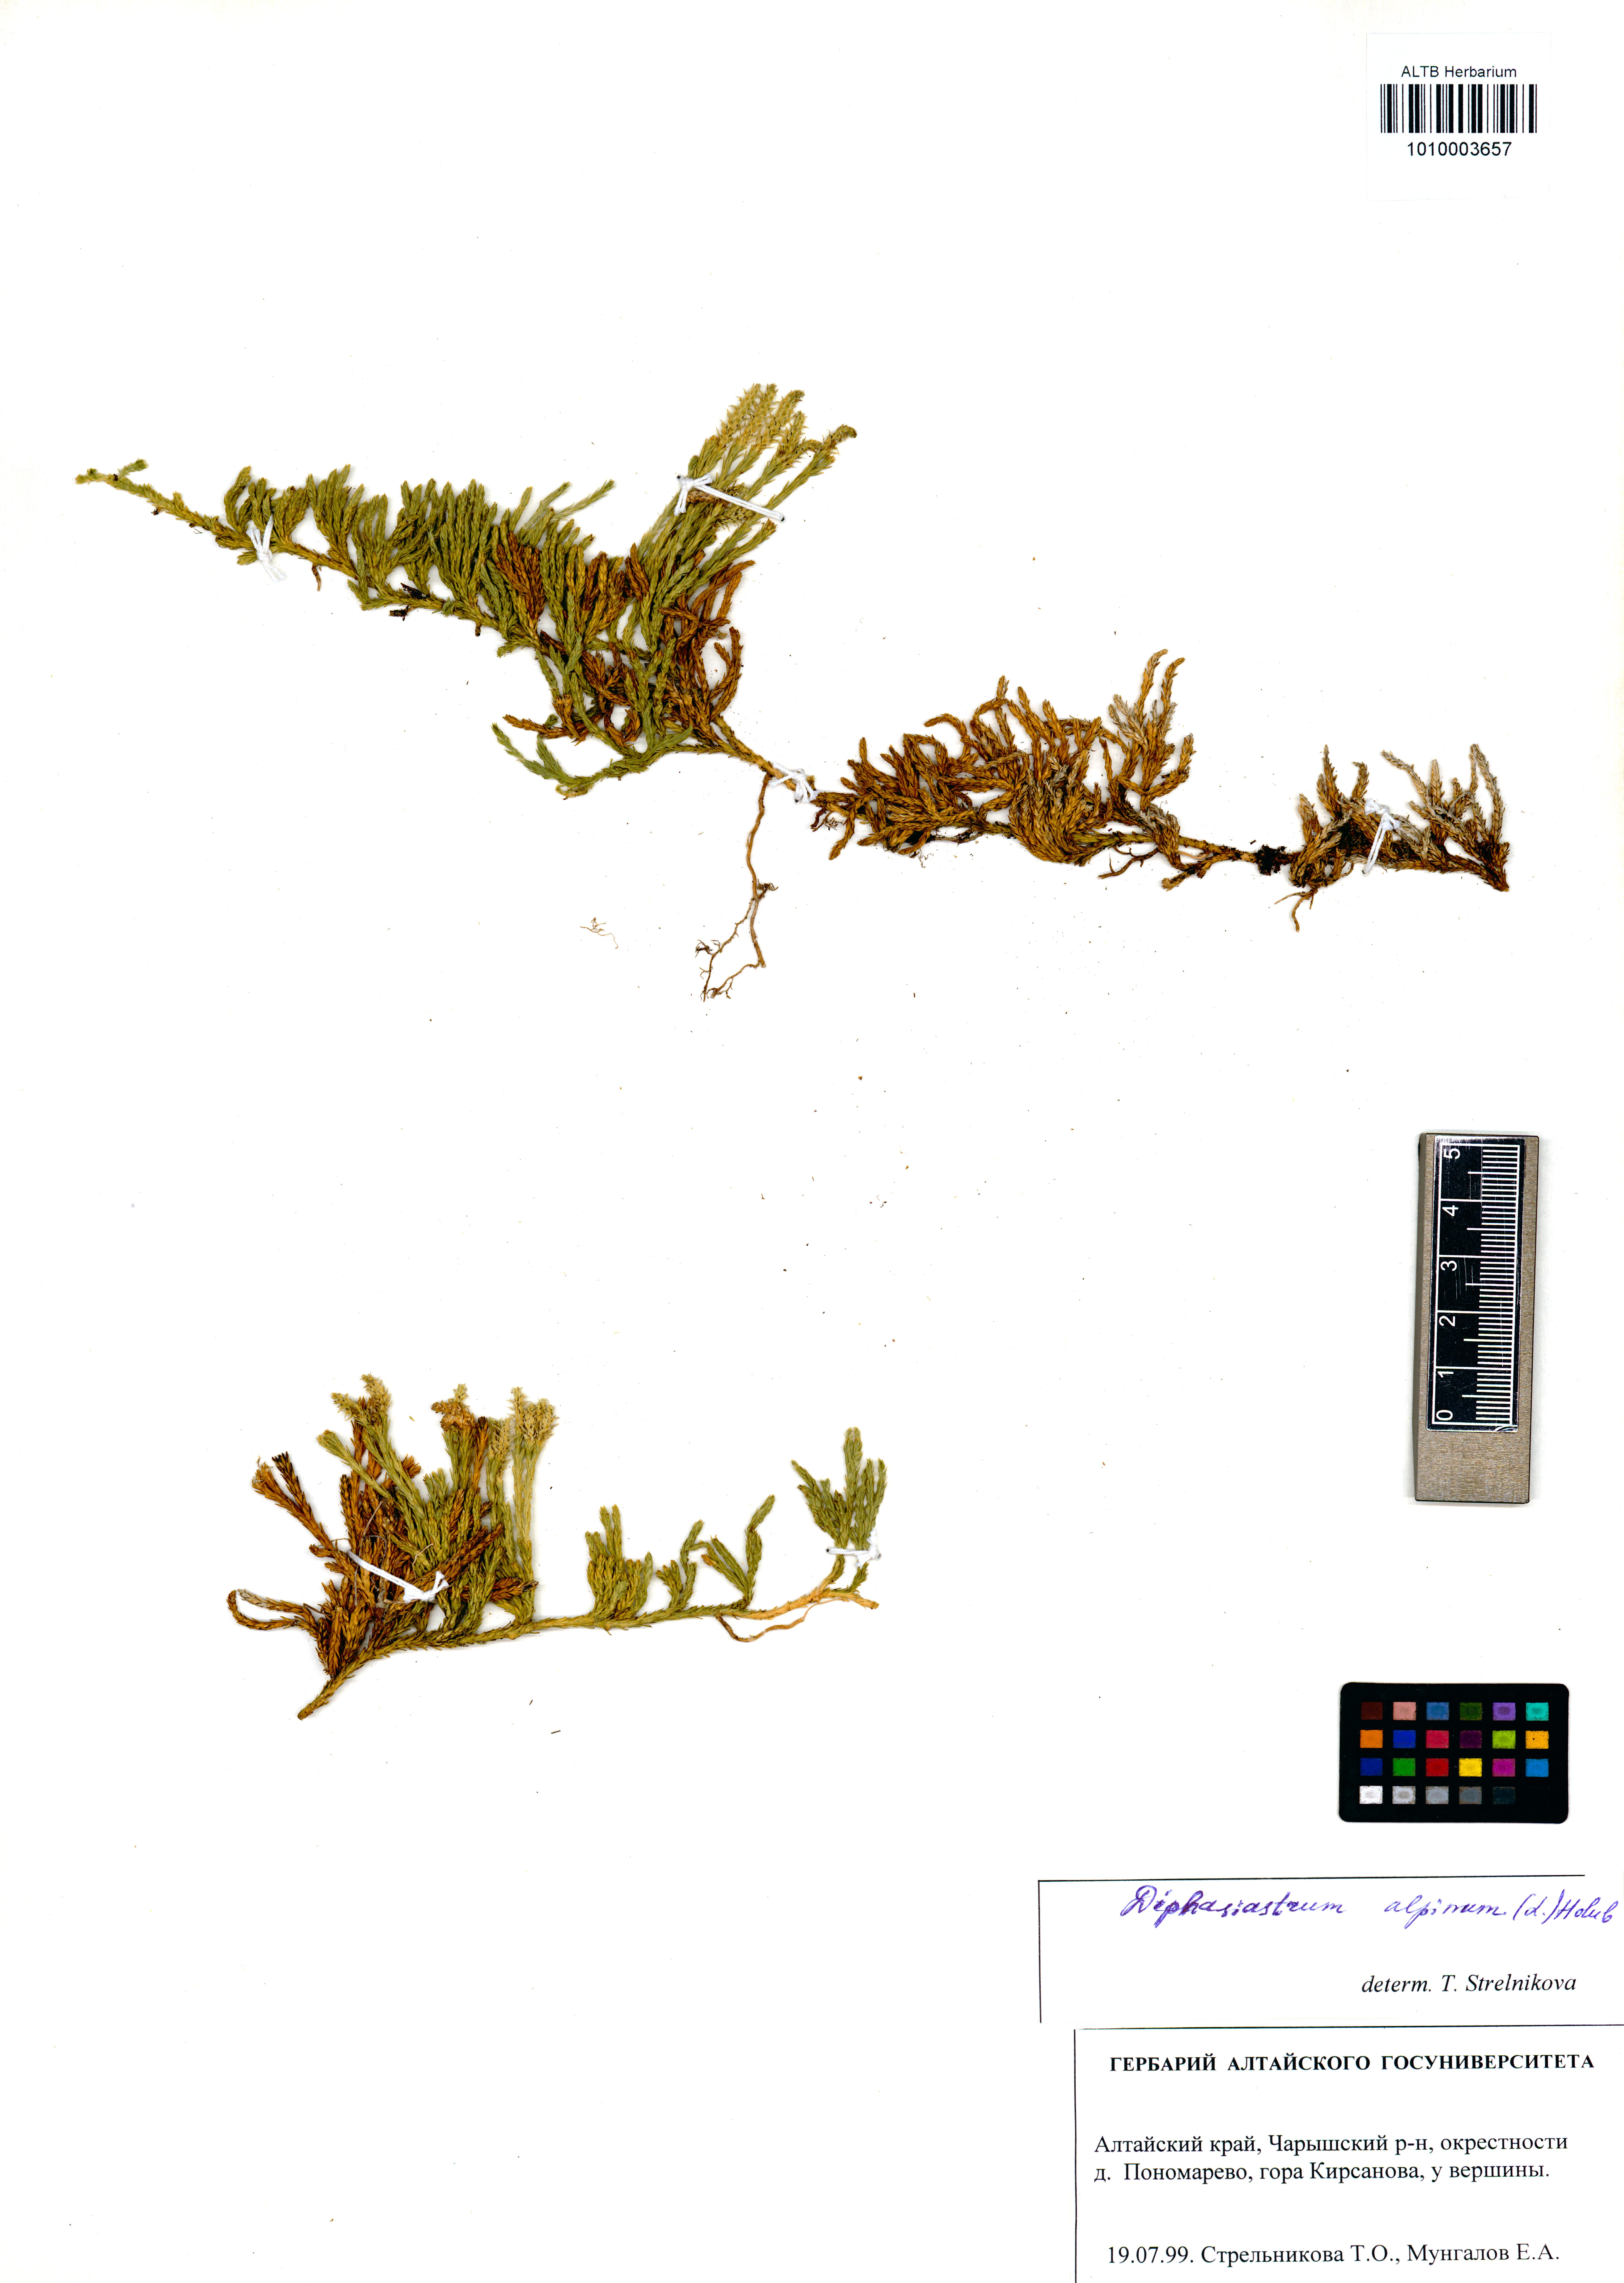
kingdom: Plantae
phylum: Tracheophyta
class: Lycopodiopsida
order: Lycopodiales
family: Lycopodiaceae
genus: Diphasiastrum
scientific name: Diphasiastrum alpinum
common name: Alpine clubmoss
